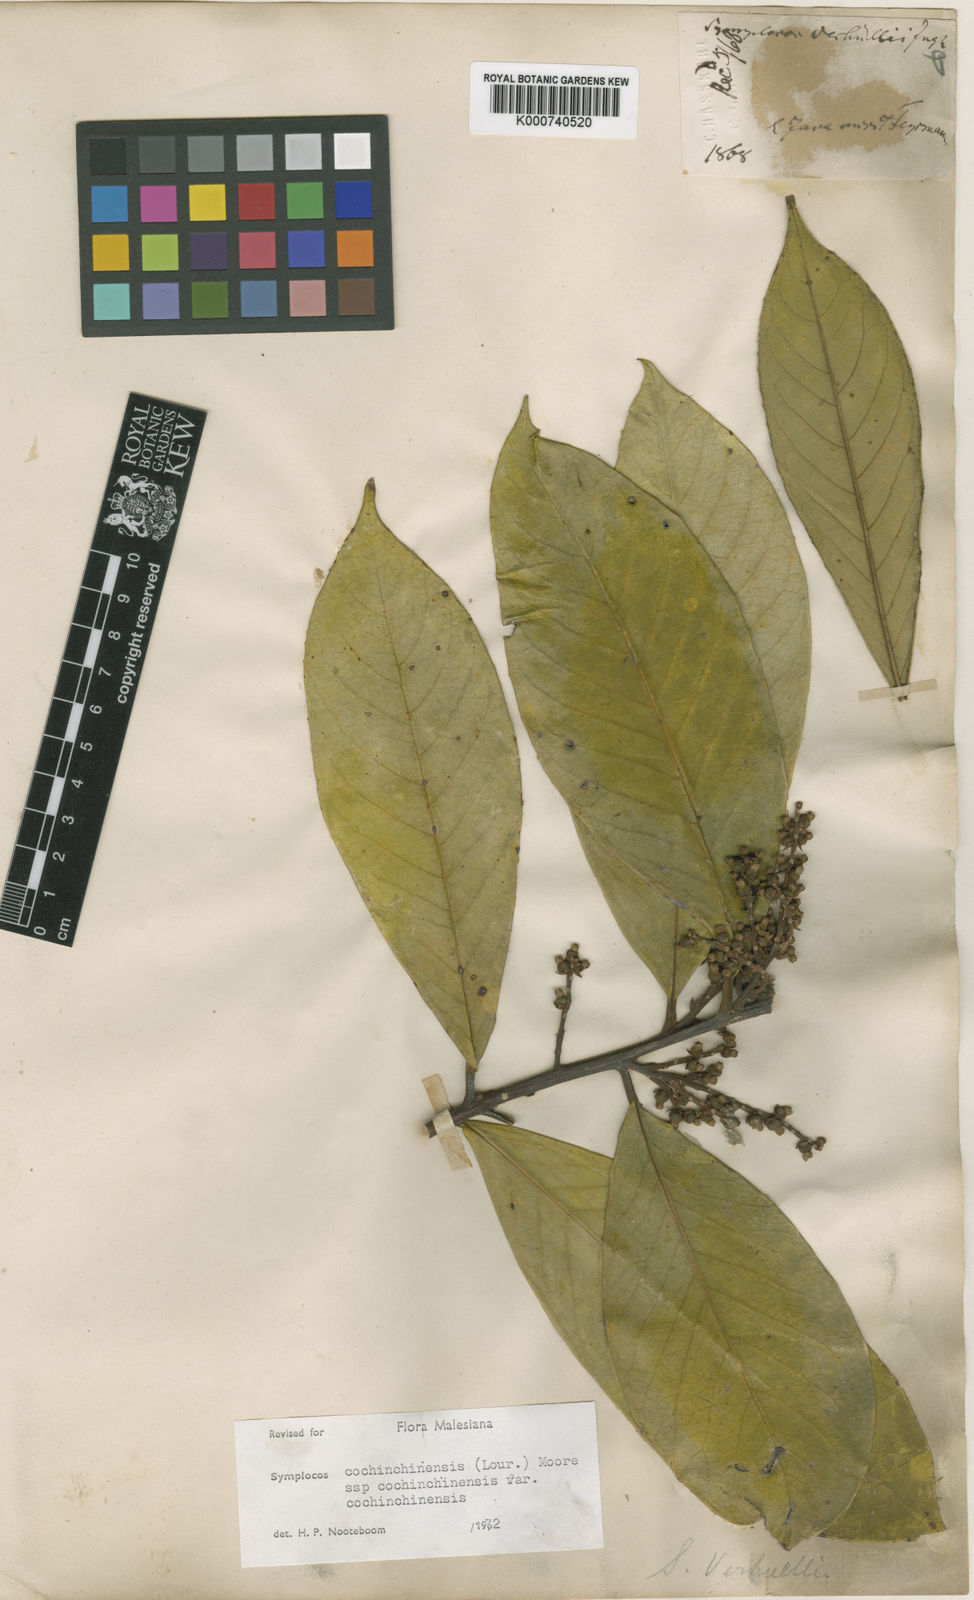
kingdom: Plantae
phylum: Tracheophyta
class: Magnoliopsida
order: Ericales
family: Symplocaceae
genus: Symplocos
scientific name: Symplocos cochinchinensis
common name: Buff hazelwood
